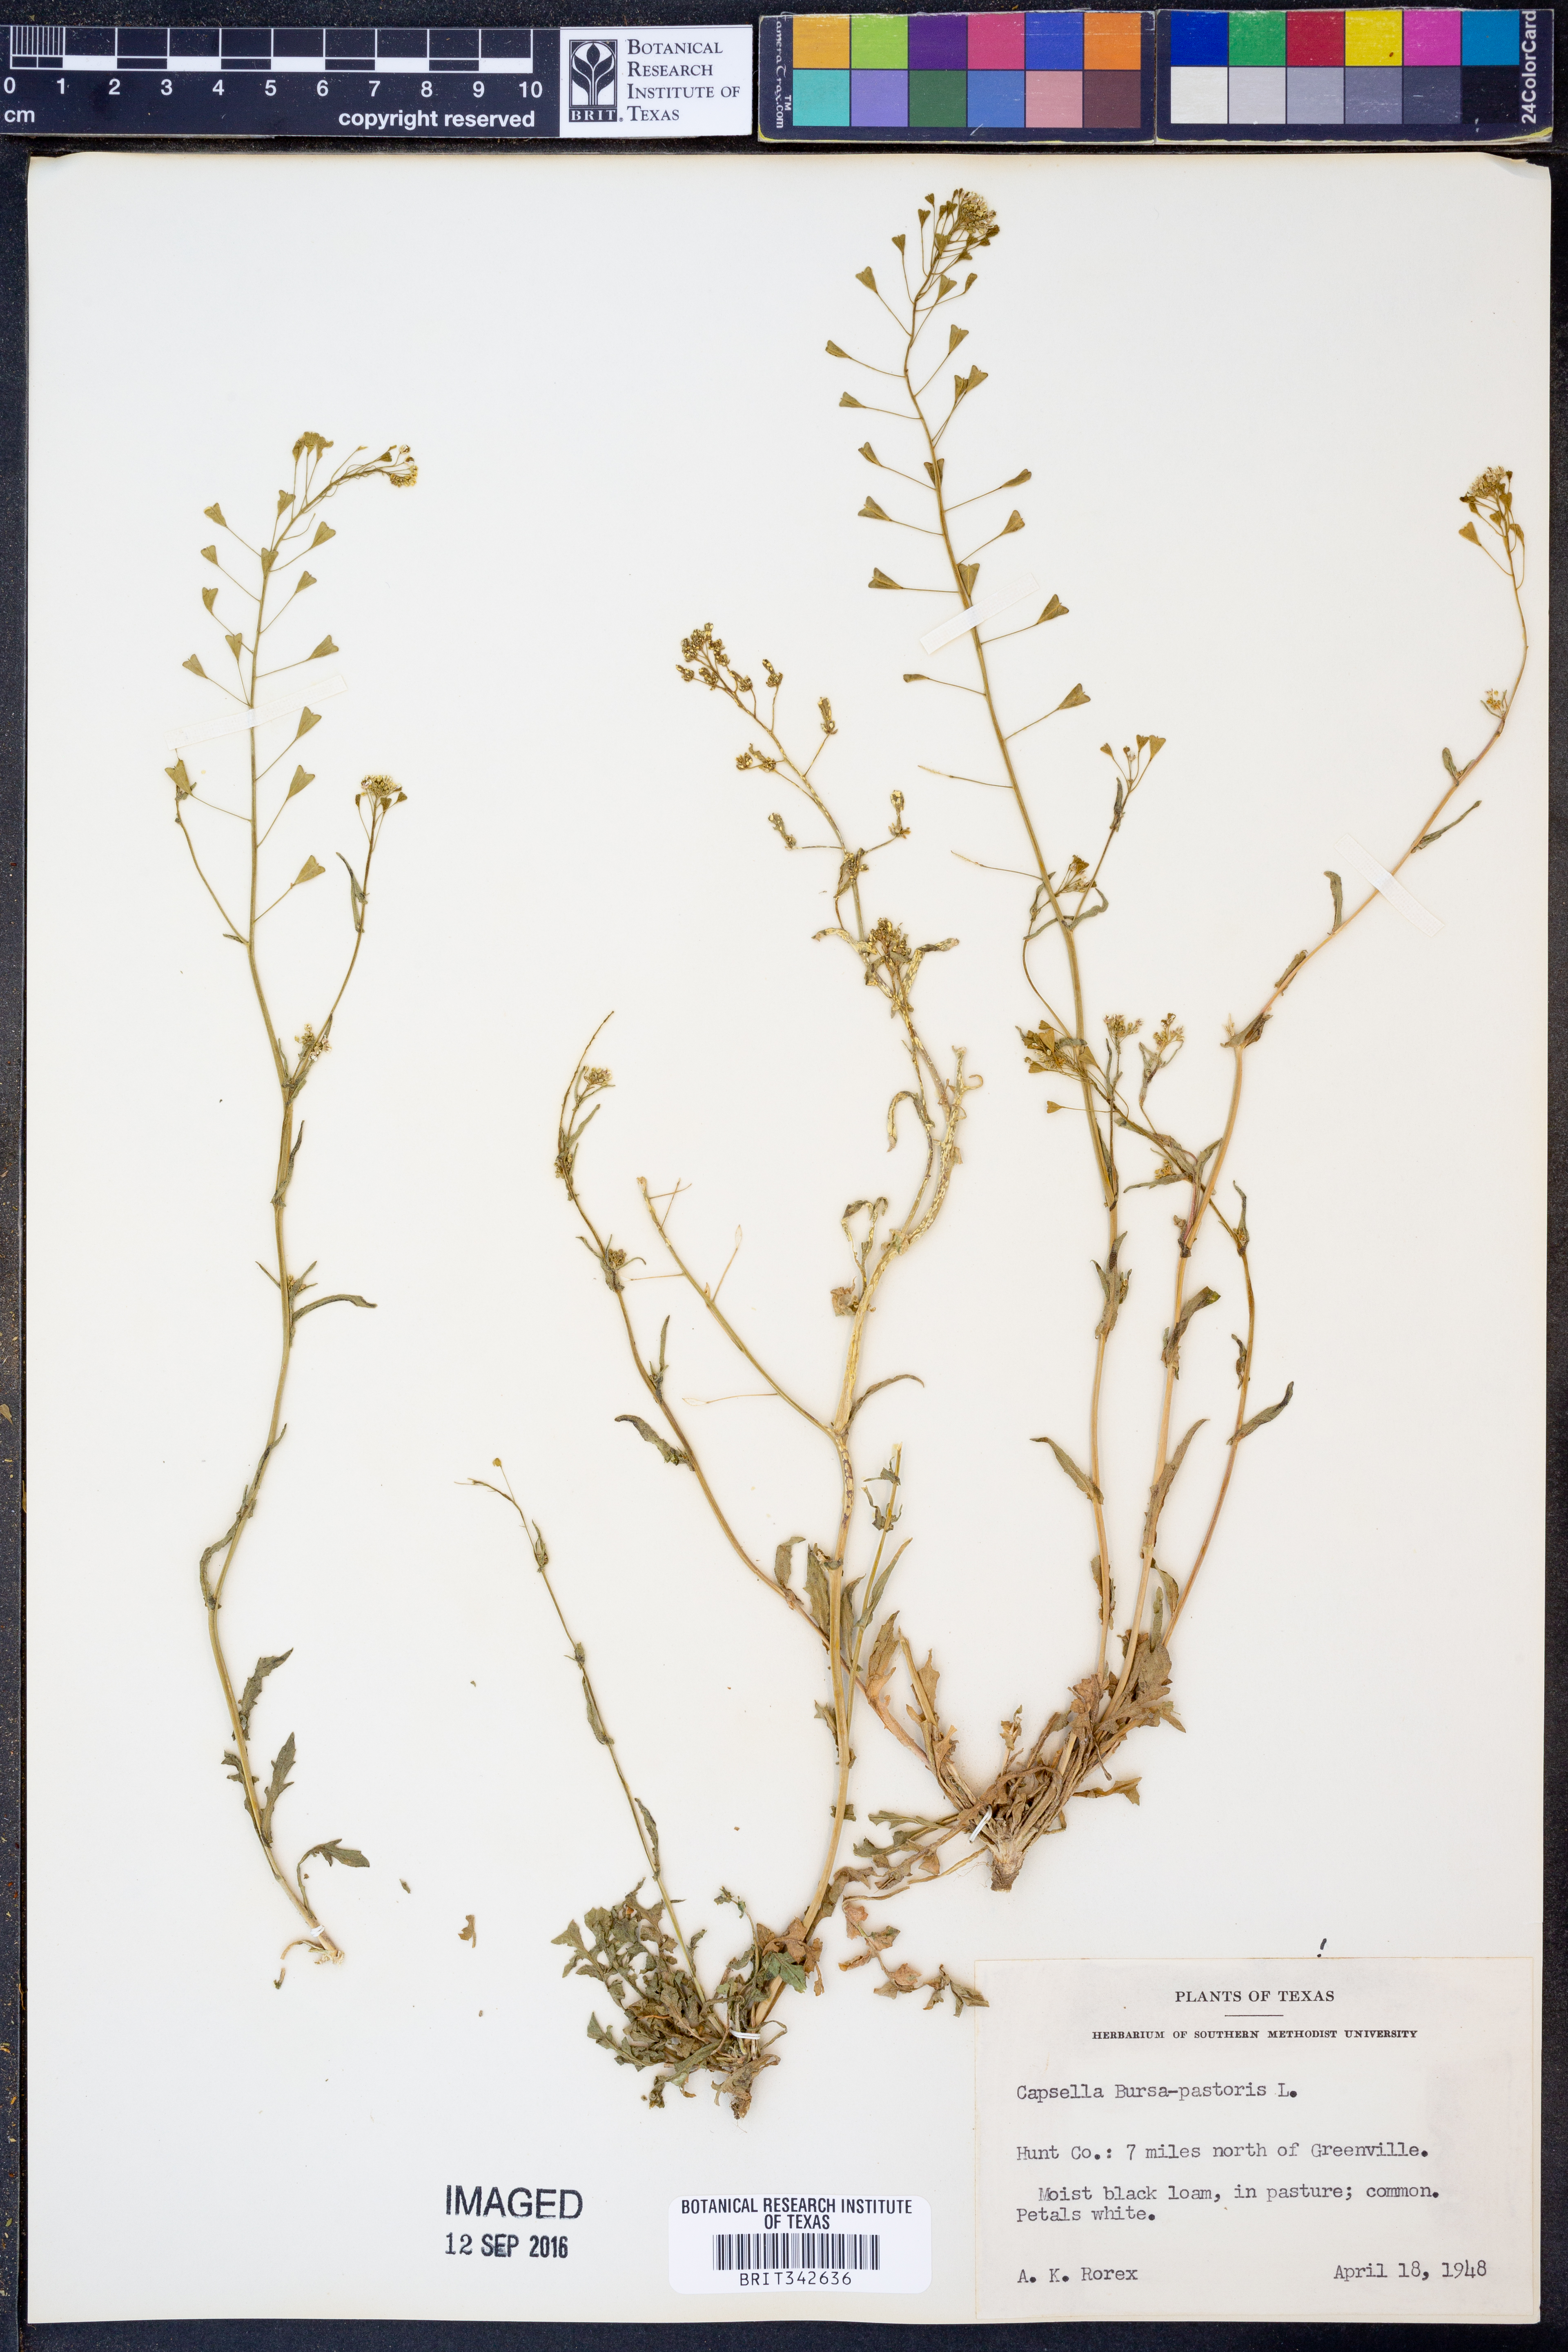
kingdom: Plantae
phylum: Tracheophyta
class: Magnoliopsida
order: Brassicales
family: Brassicaceae
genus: Capsella
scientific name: Capsella bursa-pastoris
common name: Shepherd's purse
